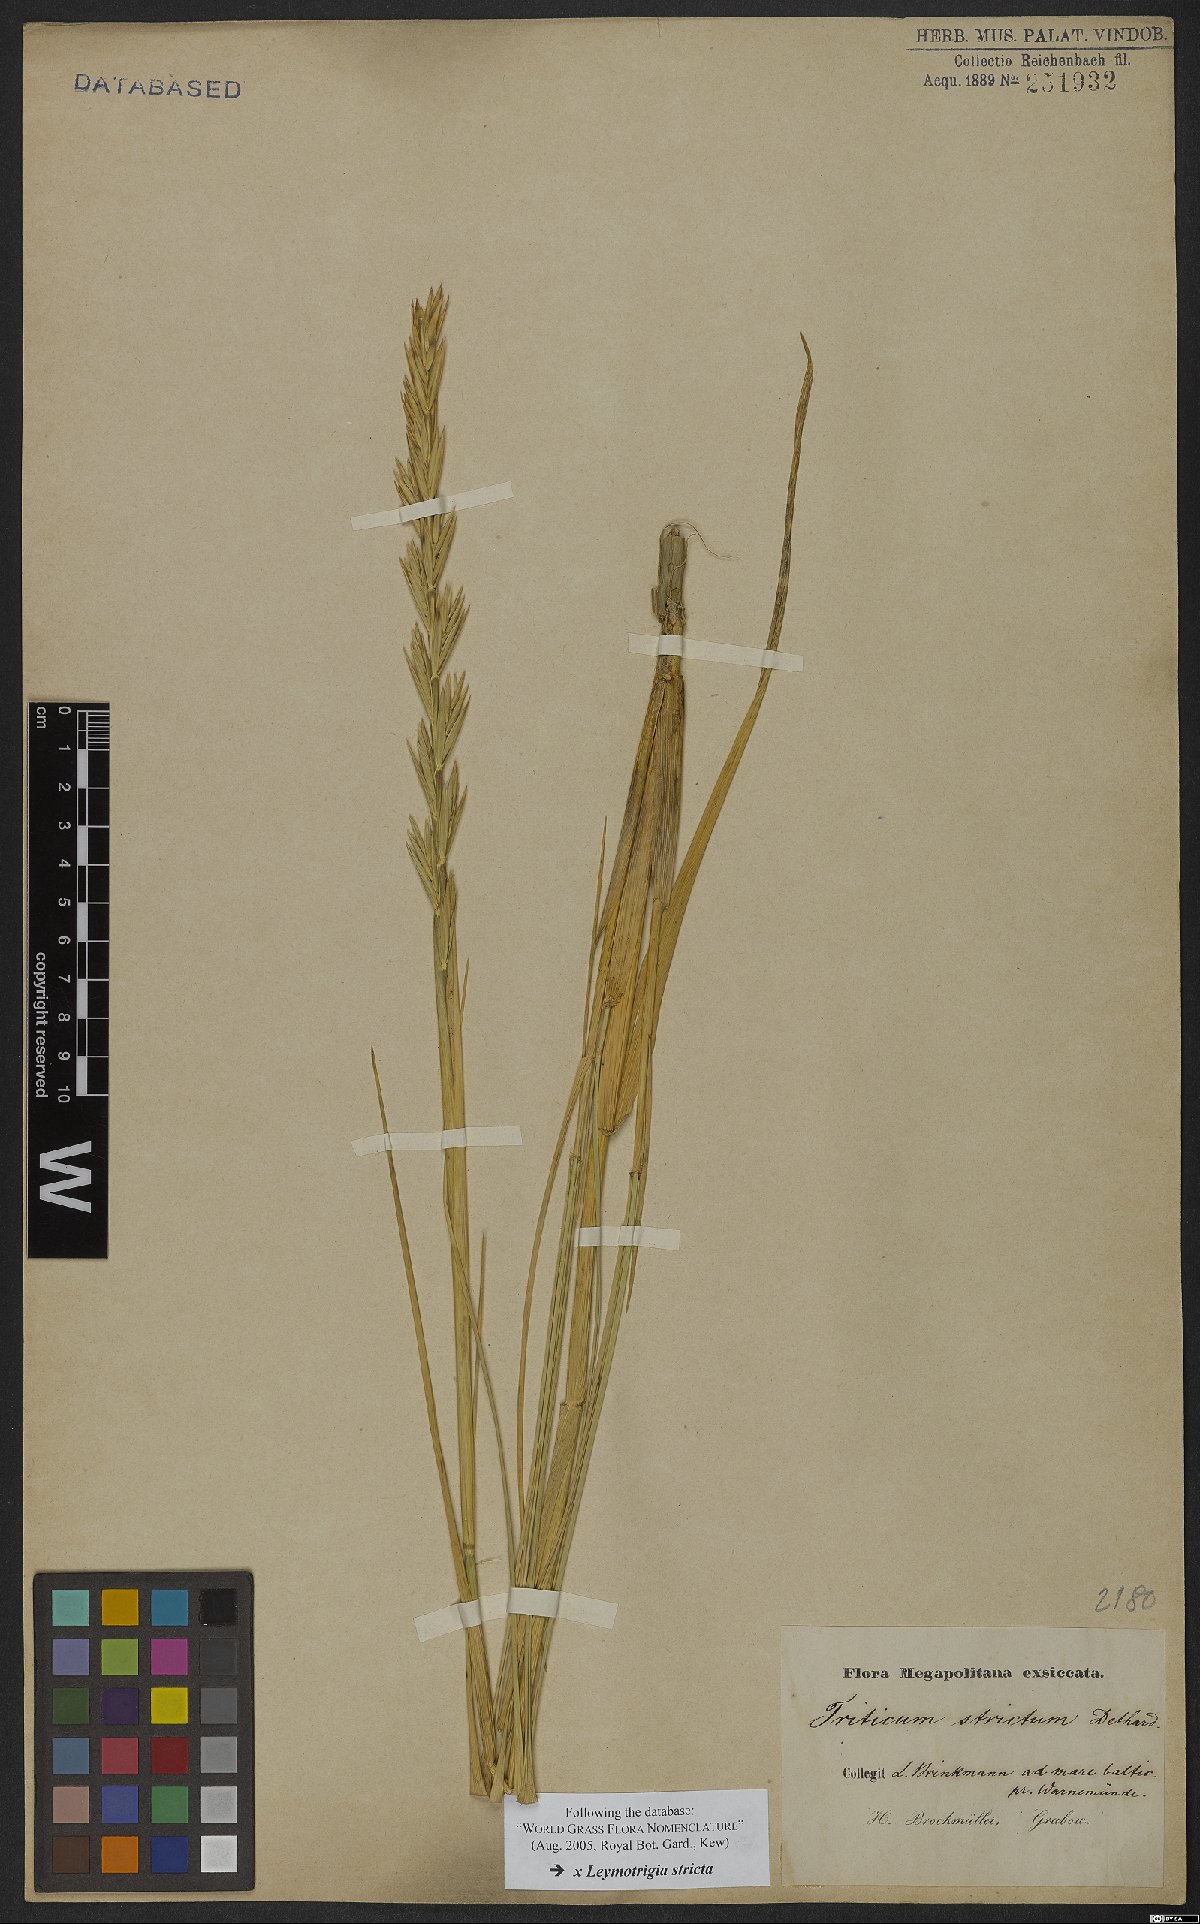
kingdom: Plantae
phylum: Tracheophyta
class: Liliopsida
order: Poales
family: Poaceae
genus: Elyleymus
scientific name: Elyleymus strictus
